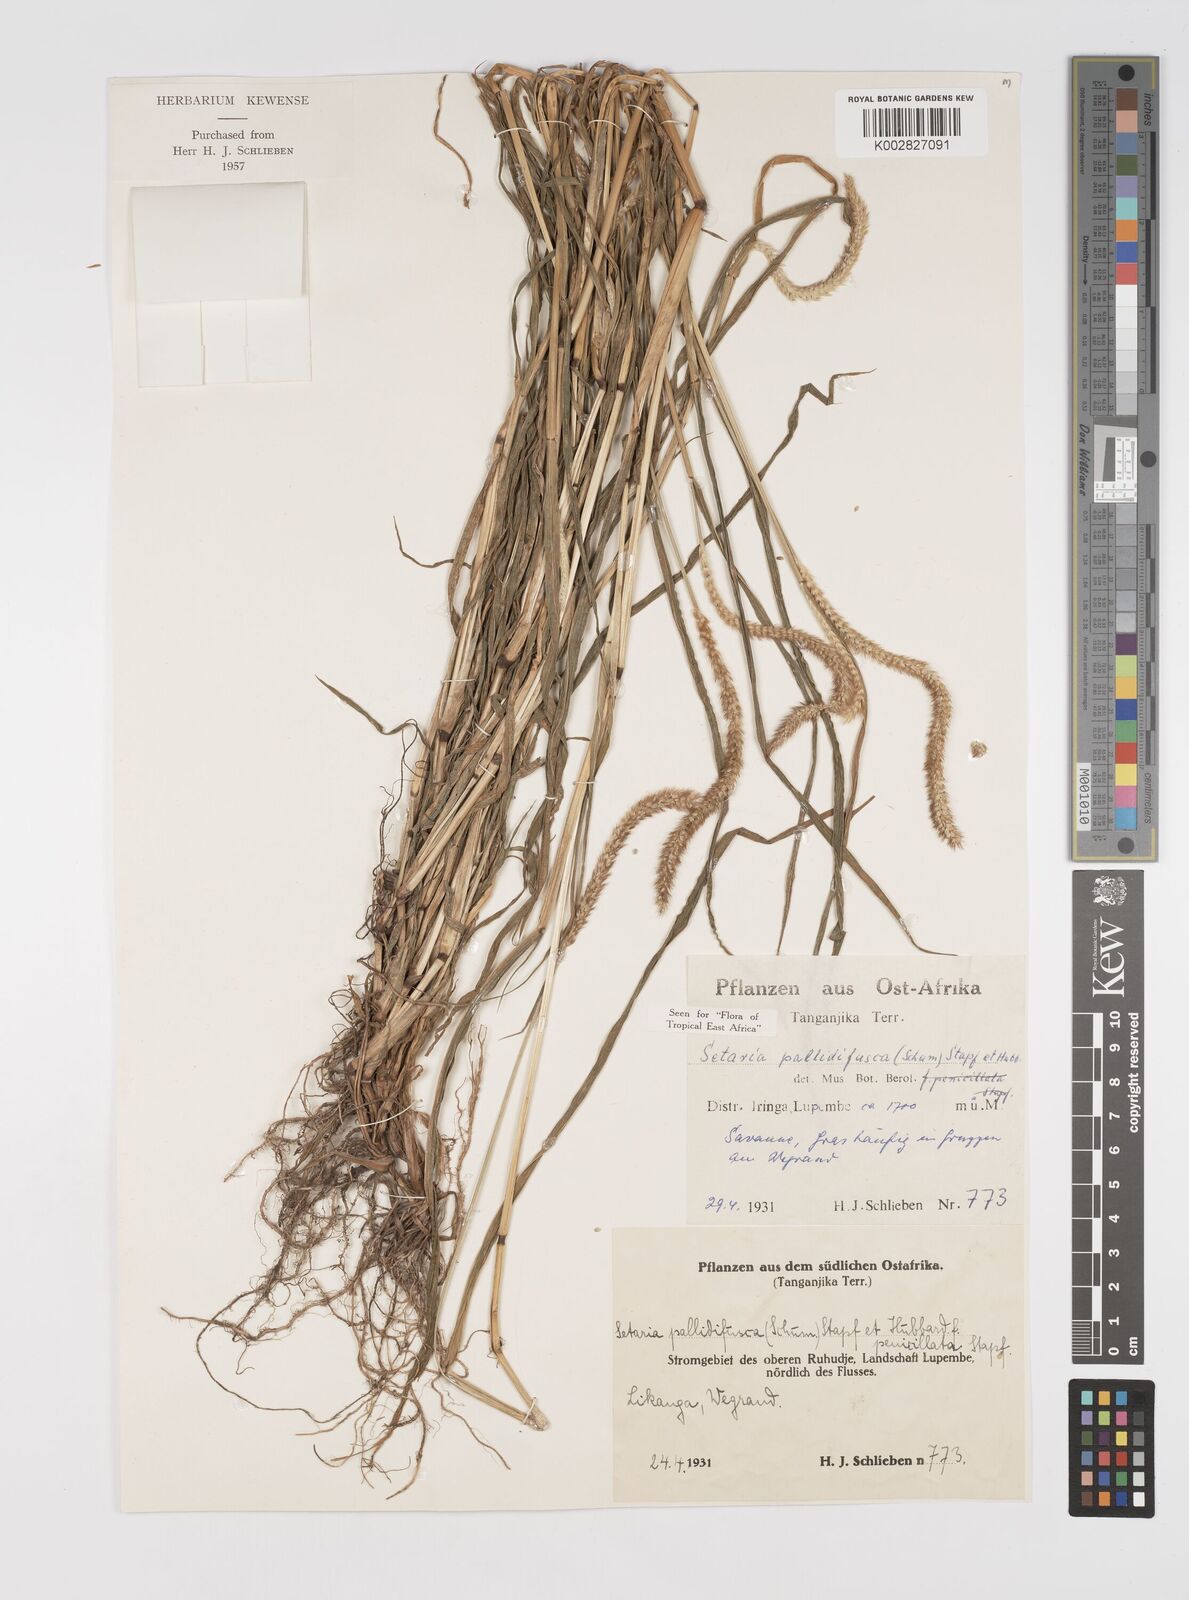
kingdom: Plantae
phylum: Tracheophyta
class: Liliopsida
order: Poales
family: Poaceae
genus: Setaria
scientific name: Setaria pumila
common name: Yellow bristle-grass
